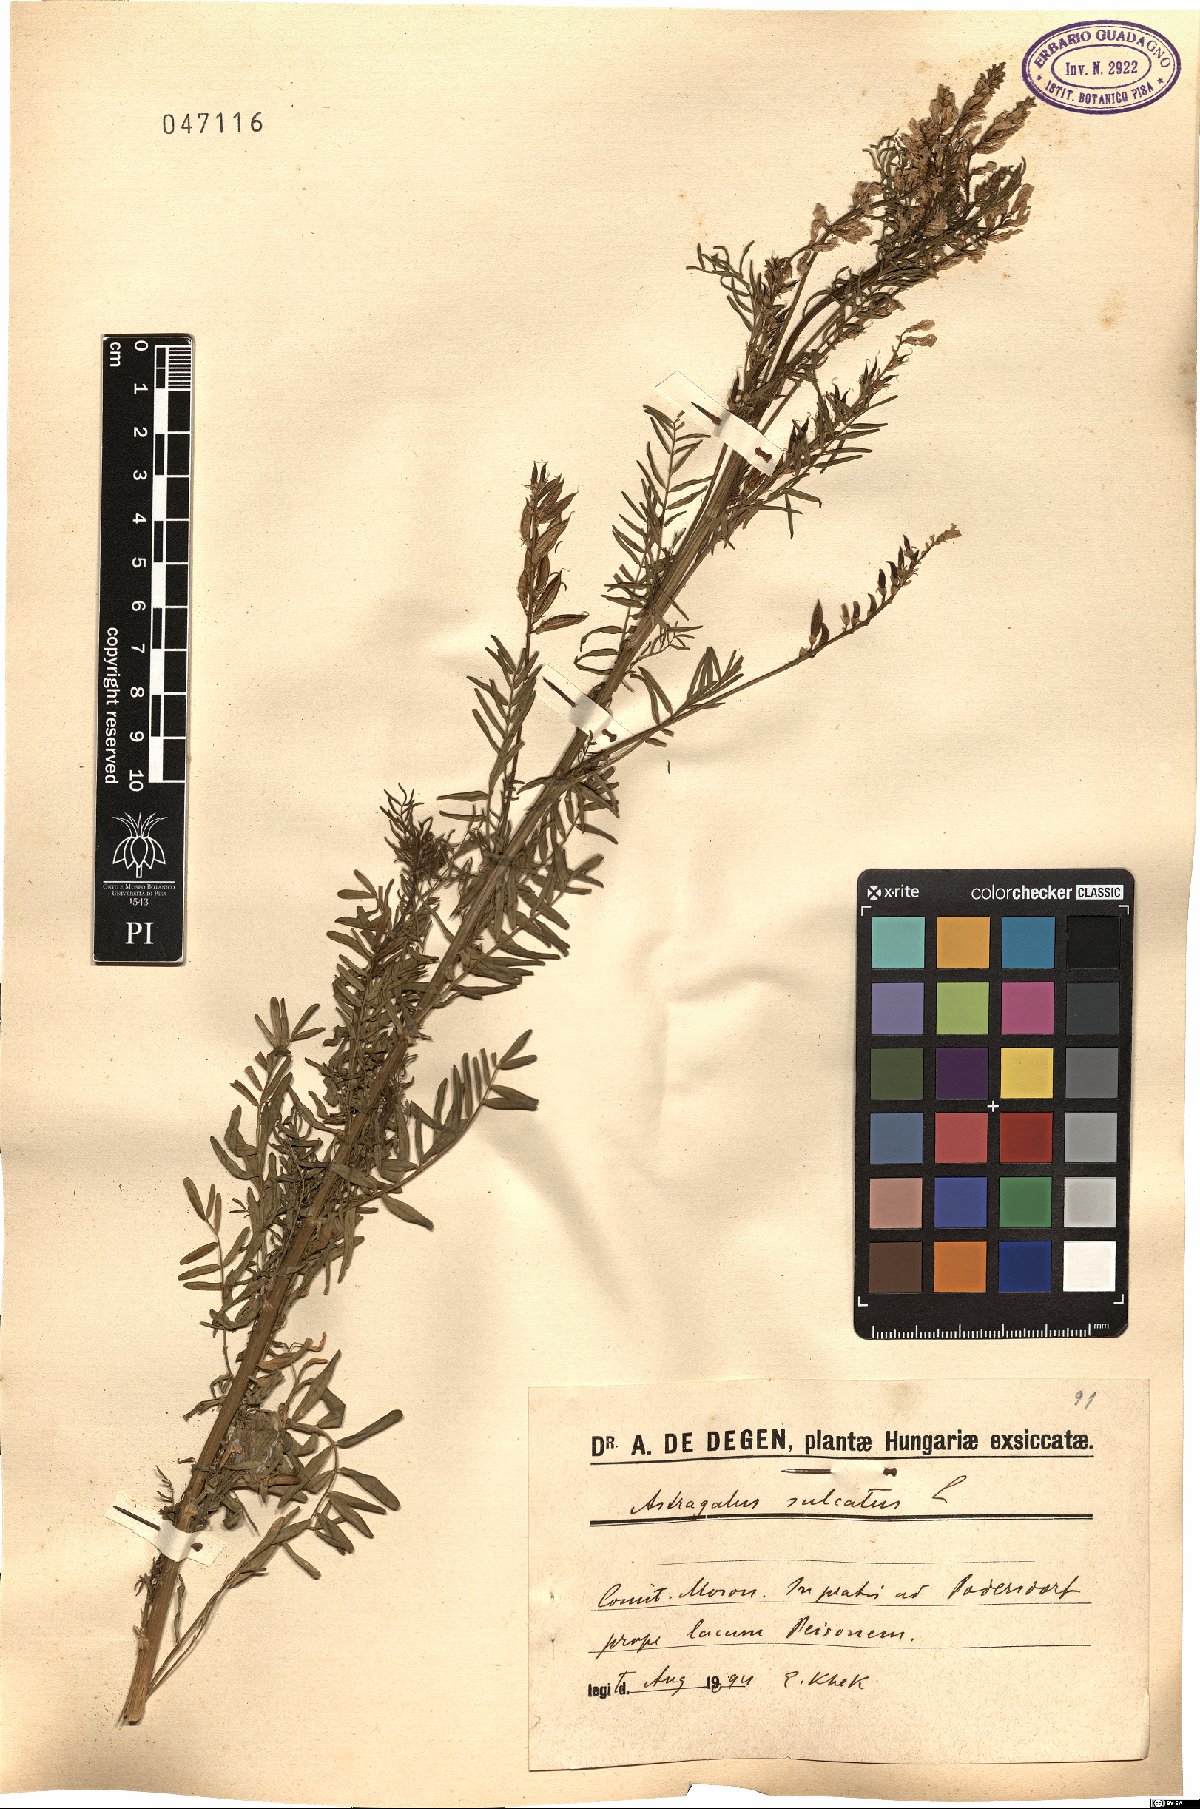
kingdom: Plantae
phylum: Tracheophyta
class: Magnoliopsida
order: Fabales
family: Fabaceae
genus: Astragalus
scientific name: Astragalus sulcatus
